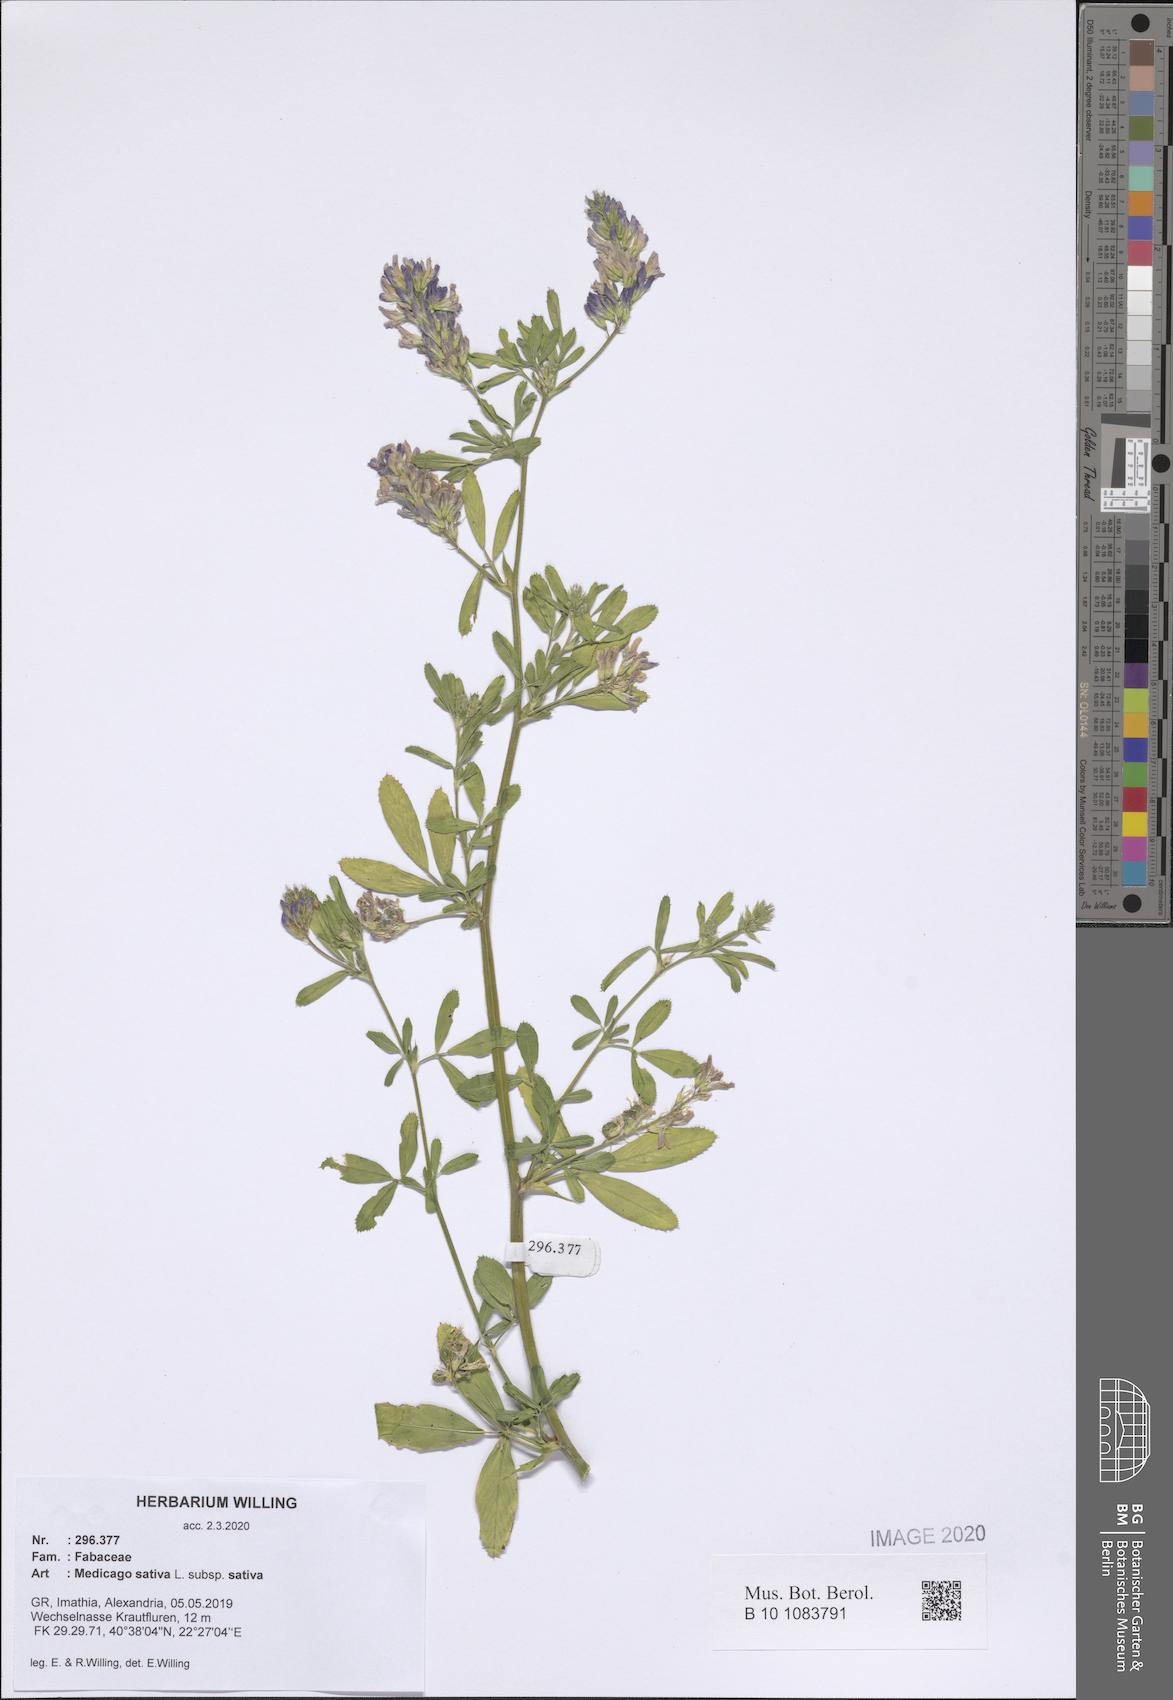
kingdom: Plantae
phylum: Tracheophyta
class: Magnoliopsida
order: Fabales
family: Fabaceae
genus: Medicago
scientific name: Medicago sativa
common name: Alfalfa
